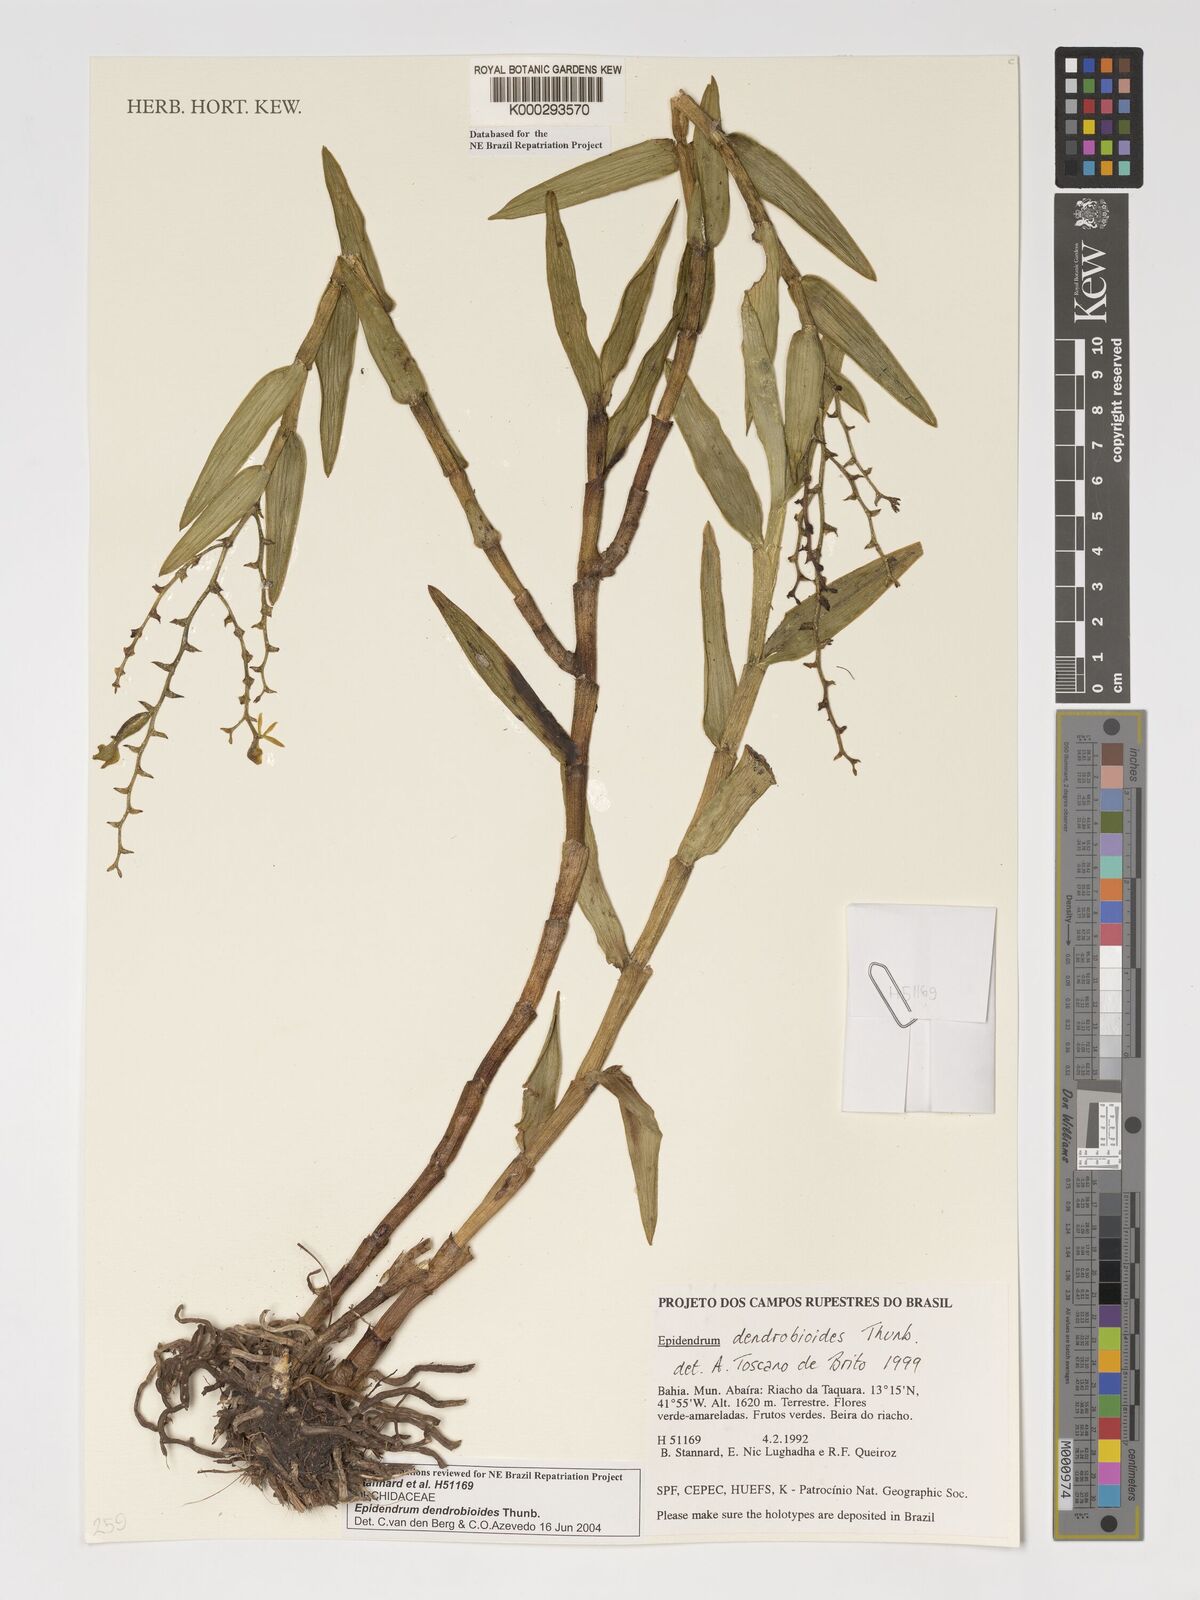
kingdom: Plantae
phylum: Tracheophyta
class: Liliopsida
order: Asparagales
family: Orchidaceae
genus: Epidendrum
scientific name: Epidendrum dendrobioides
